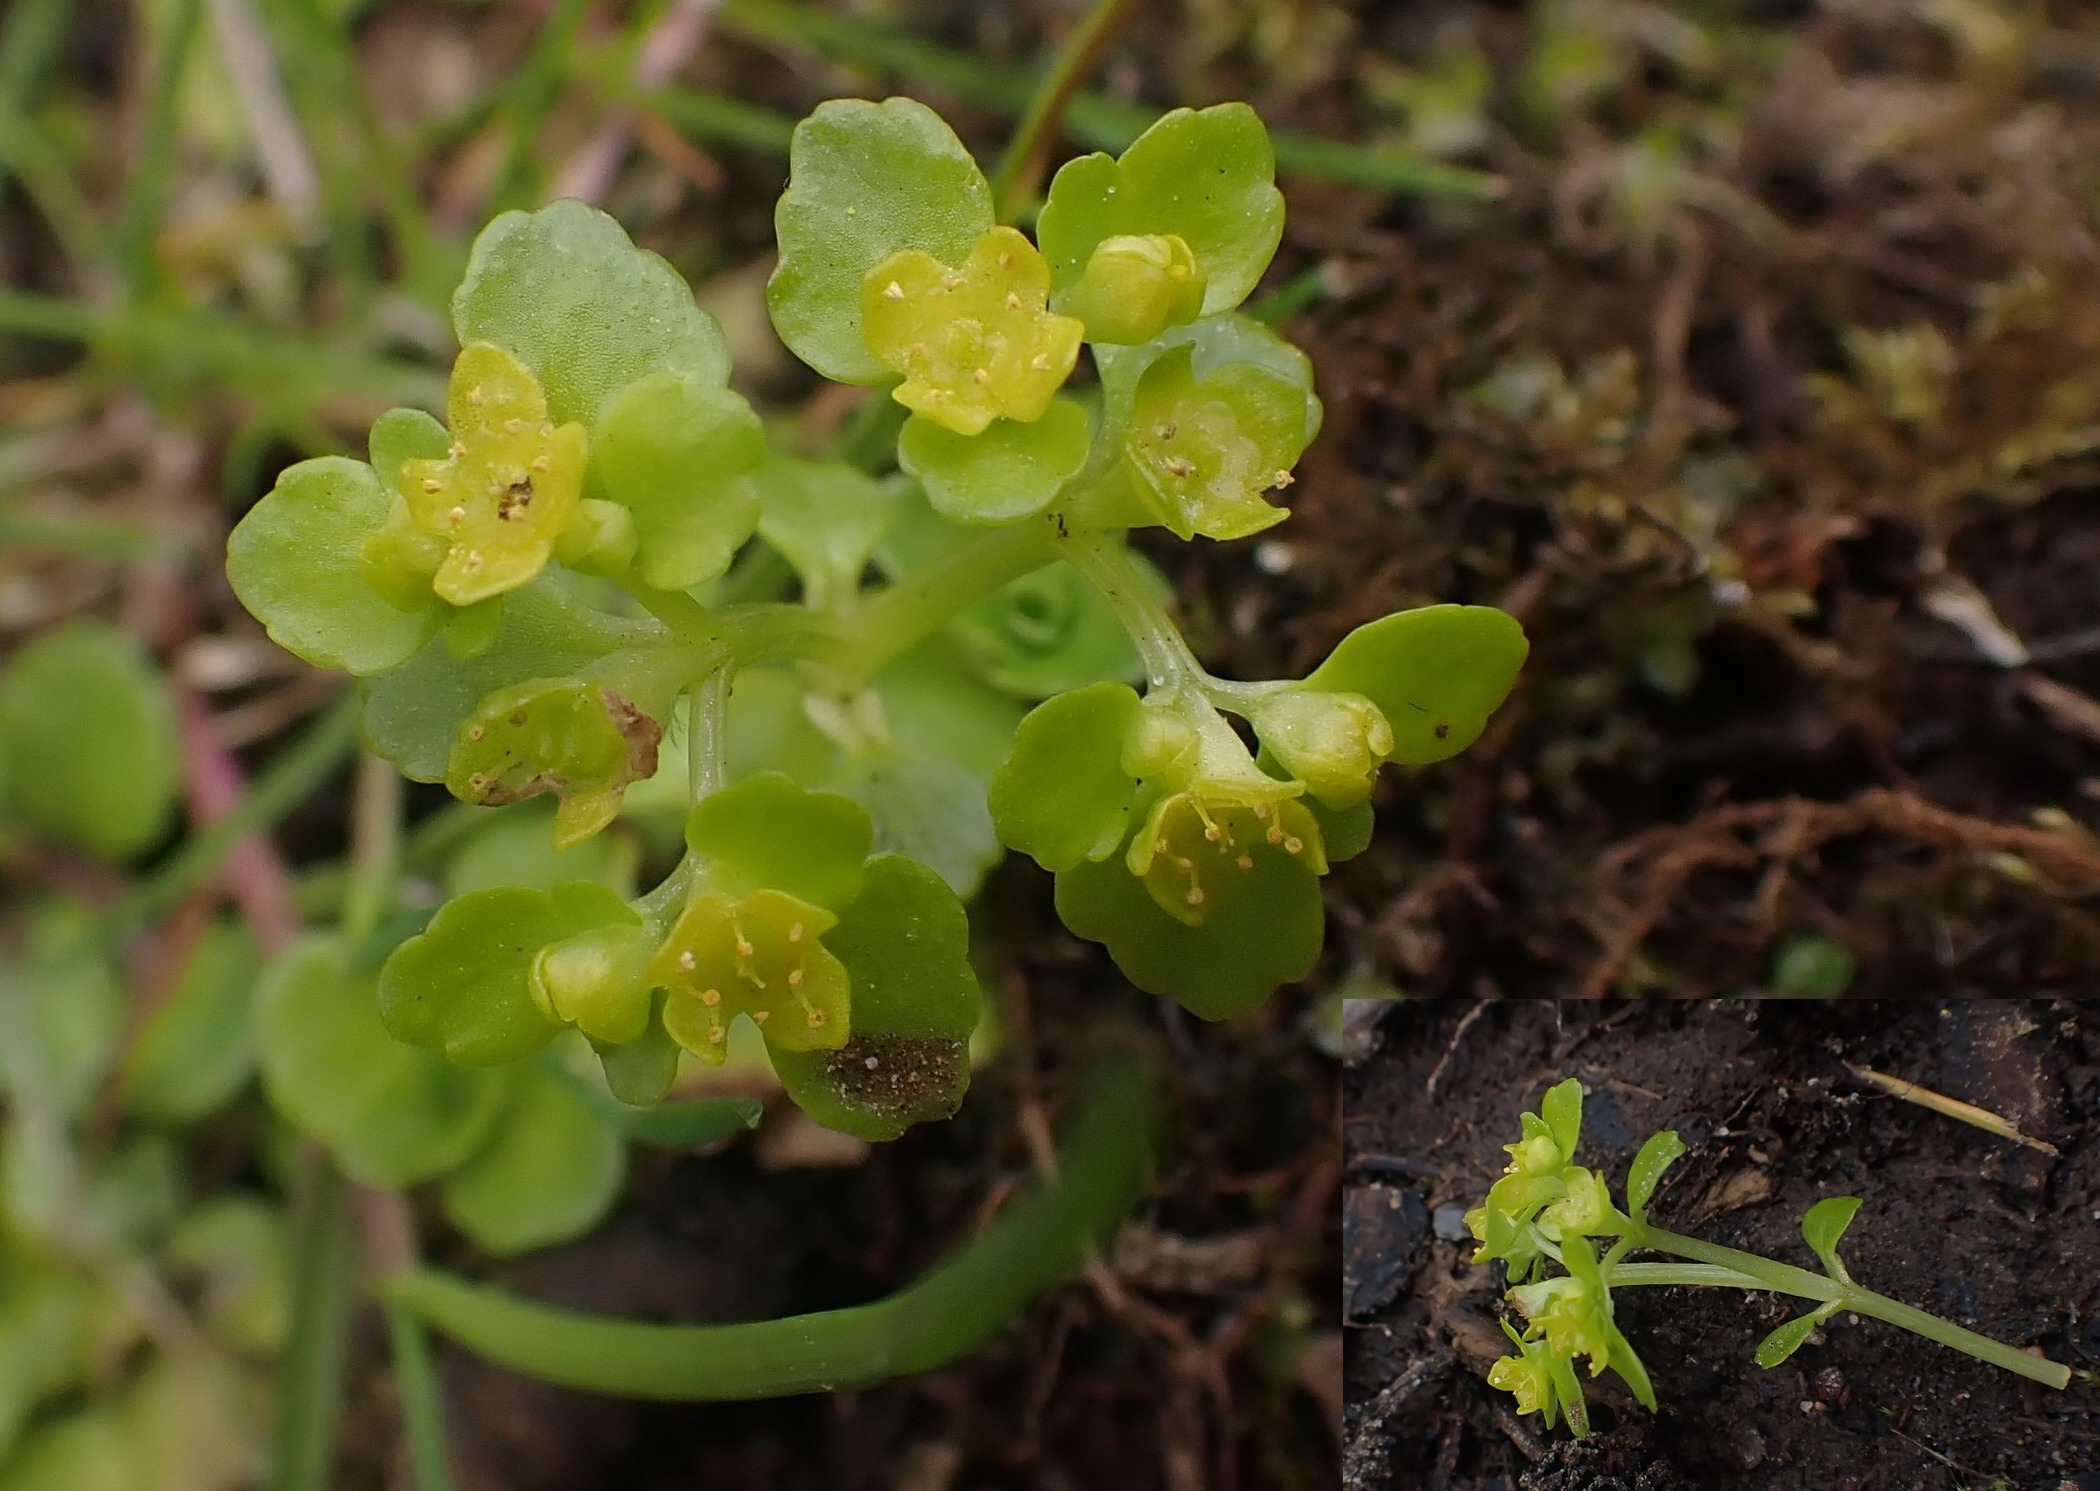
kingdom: Plantae
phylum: Tracheophyta
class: Magnoliopsida
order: Saxifragales
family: Saxifragaceae
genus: Chrysosplenium
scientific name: Chrysosplenium oppositifolium
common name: Småbladet milturt
